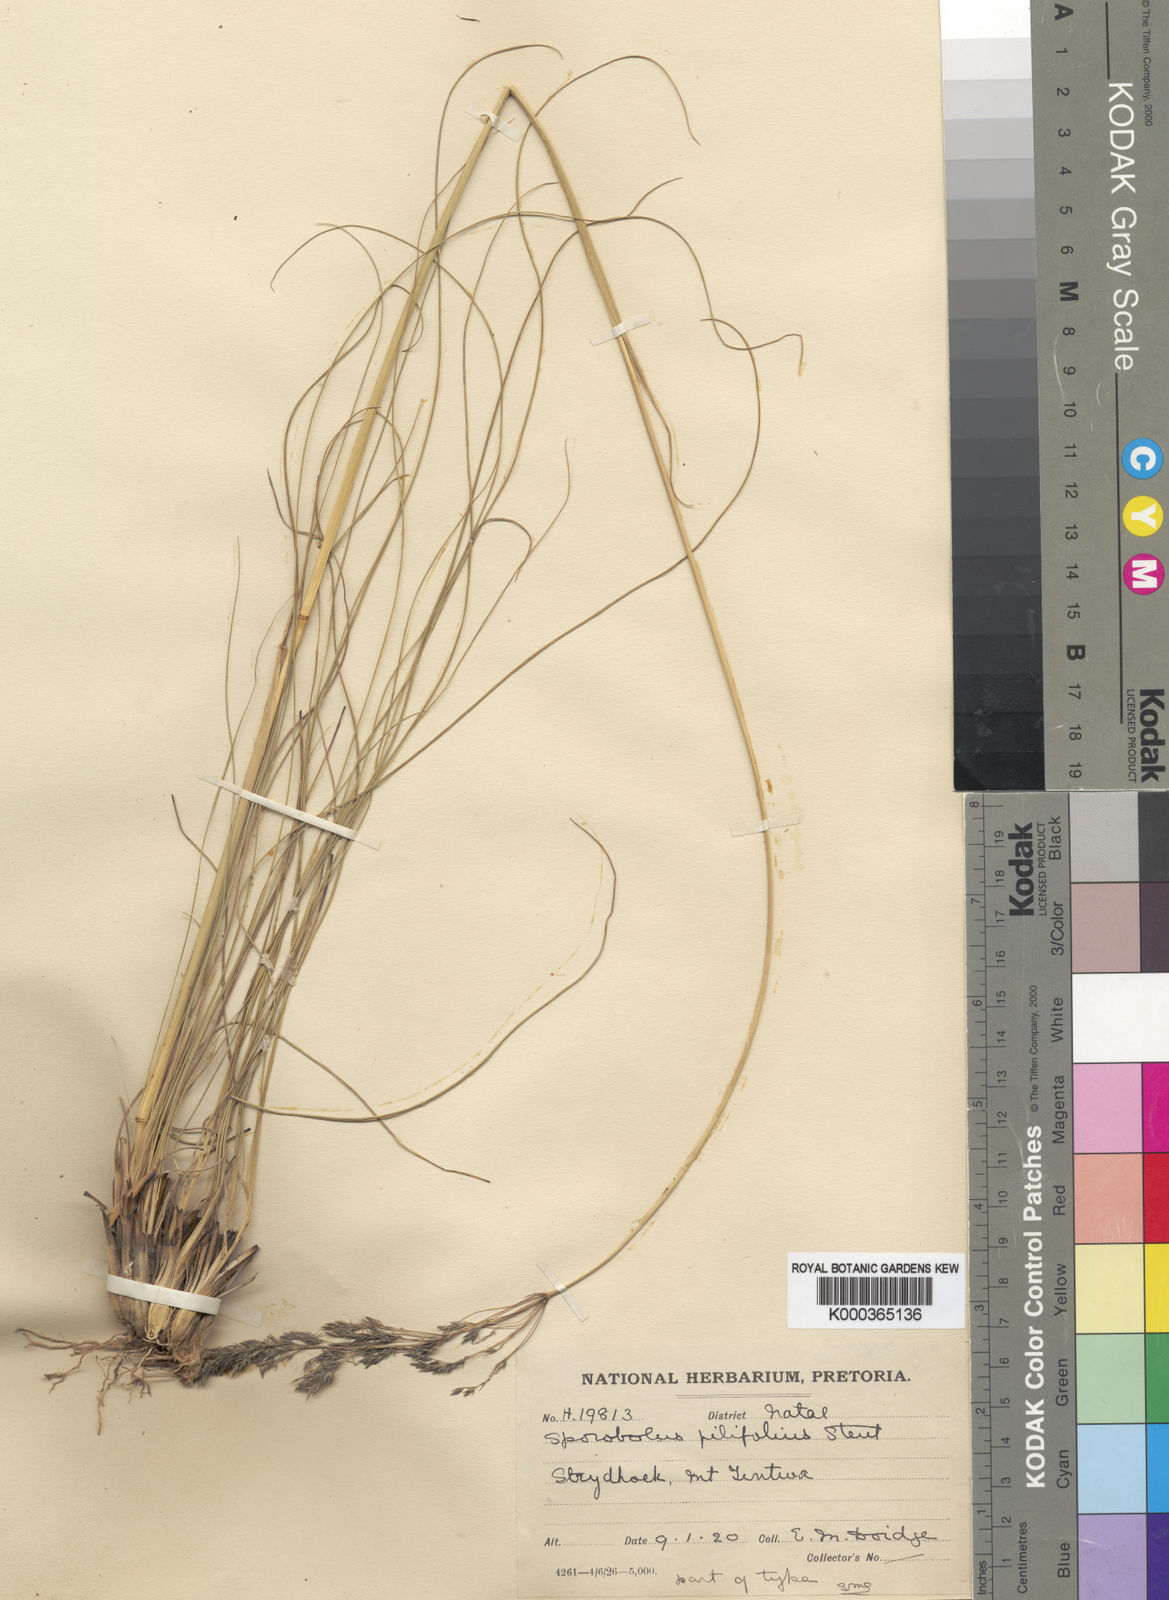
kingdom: Plantae
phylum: Tracheophyta
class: Liliopsida
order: Poales
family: Poaceae
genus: Sporobolus
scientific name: Sporobolus centrifugus
